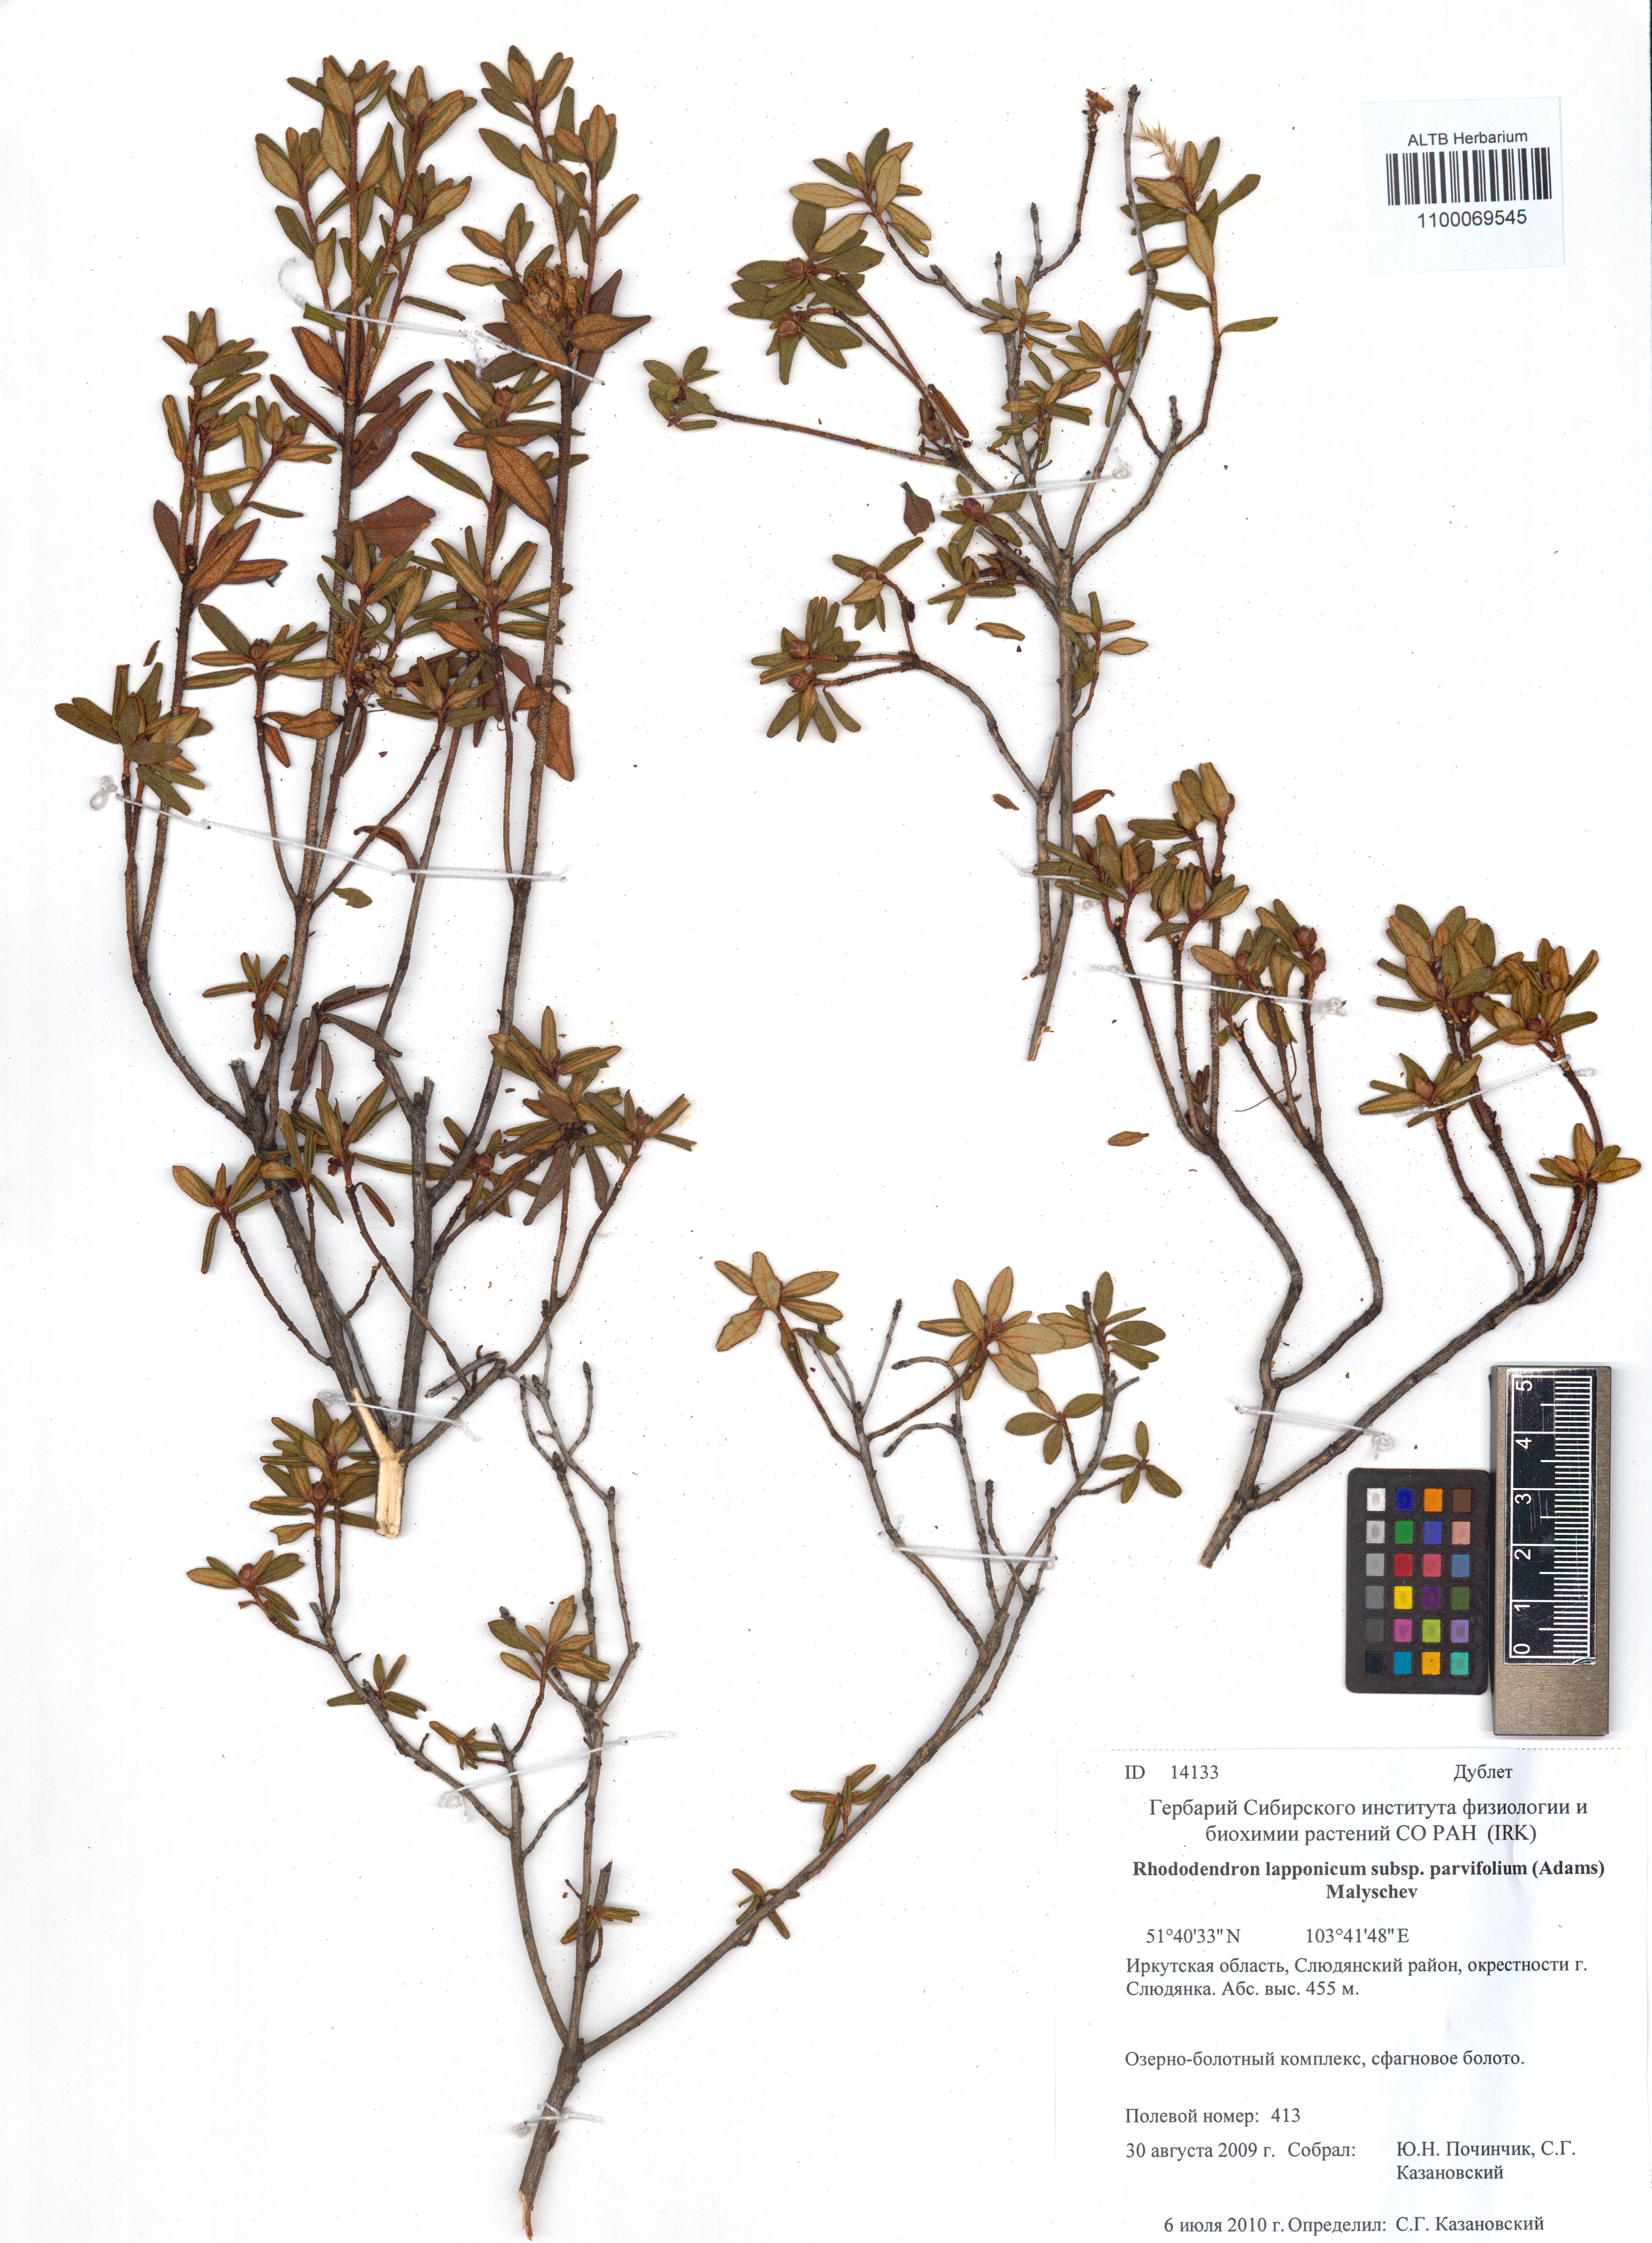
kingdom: Plantae
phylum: Tracheophyta
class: Magnoliopsida
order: Ericales
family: Ericaceae
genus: Rhododendron
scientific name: Rhododendron lapponicum
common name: Lapland rhododendron
